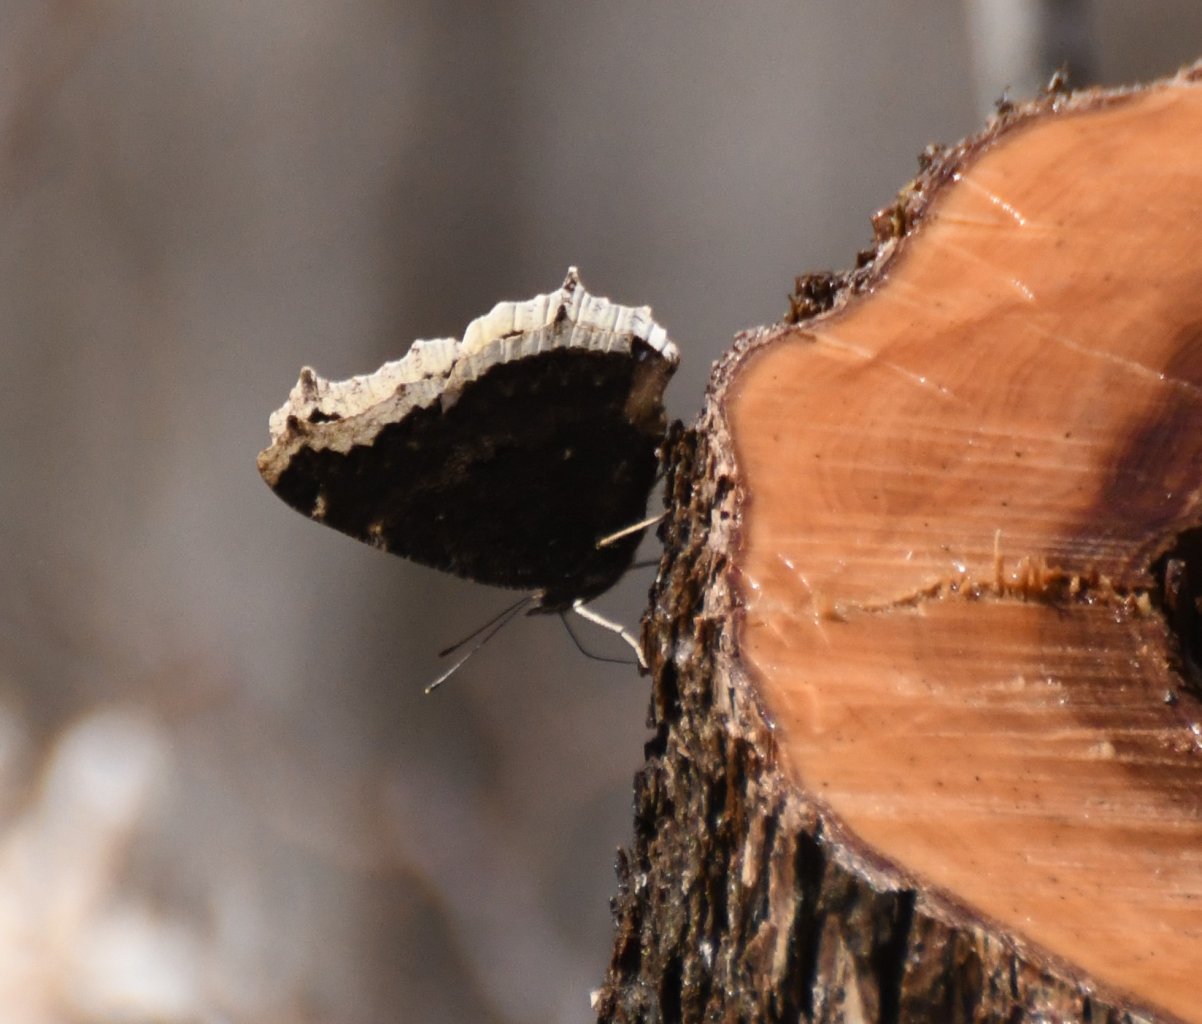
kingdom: Animalia
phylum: Arthropoda
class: Insecta
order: Lepidoptera
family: Nymphalidae
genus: Nymphalis
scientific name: Nymphalis antiopa
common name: Mourning Cloak
